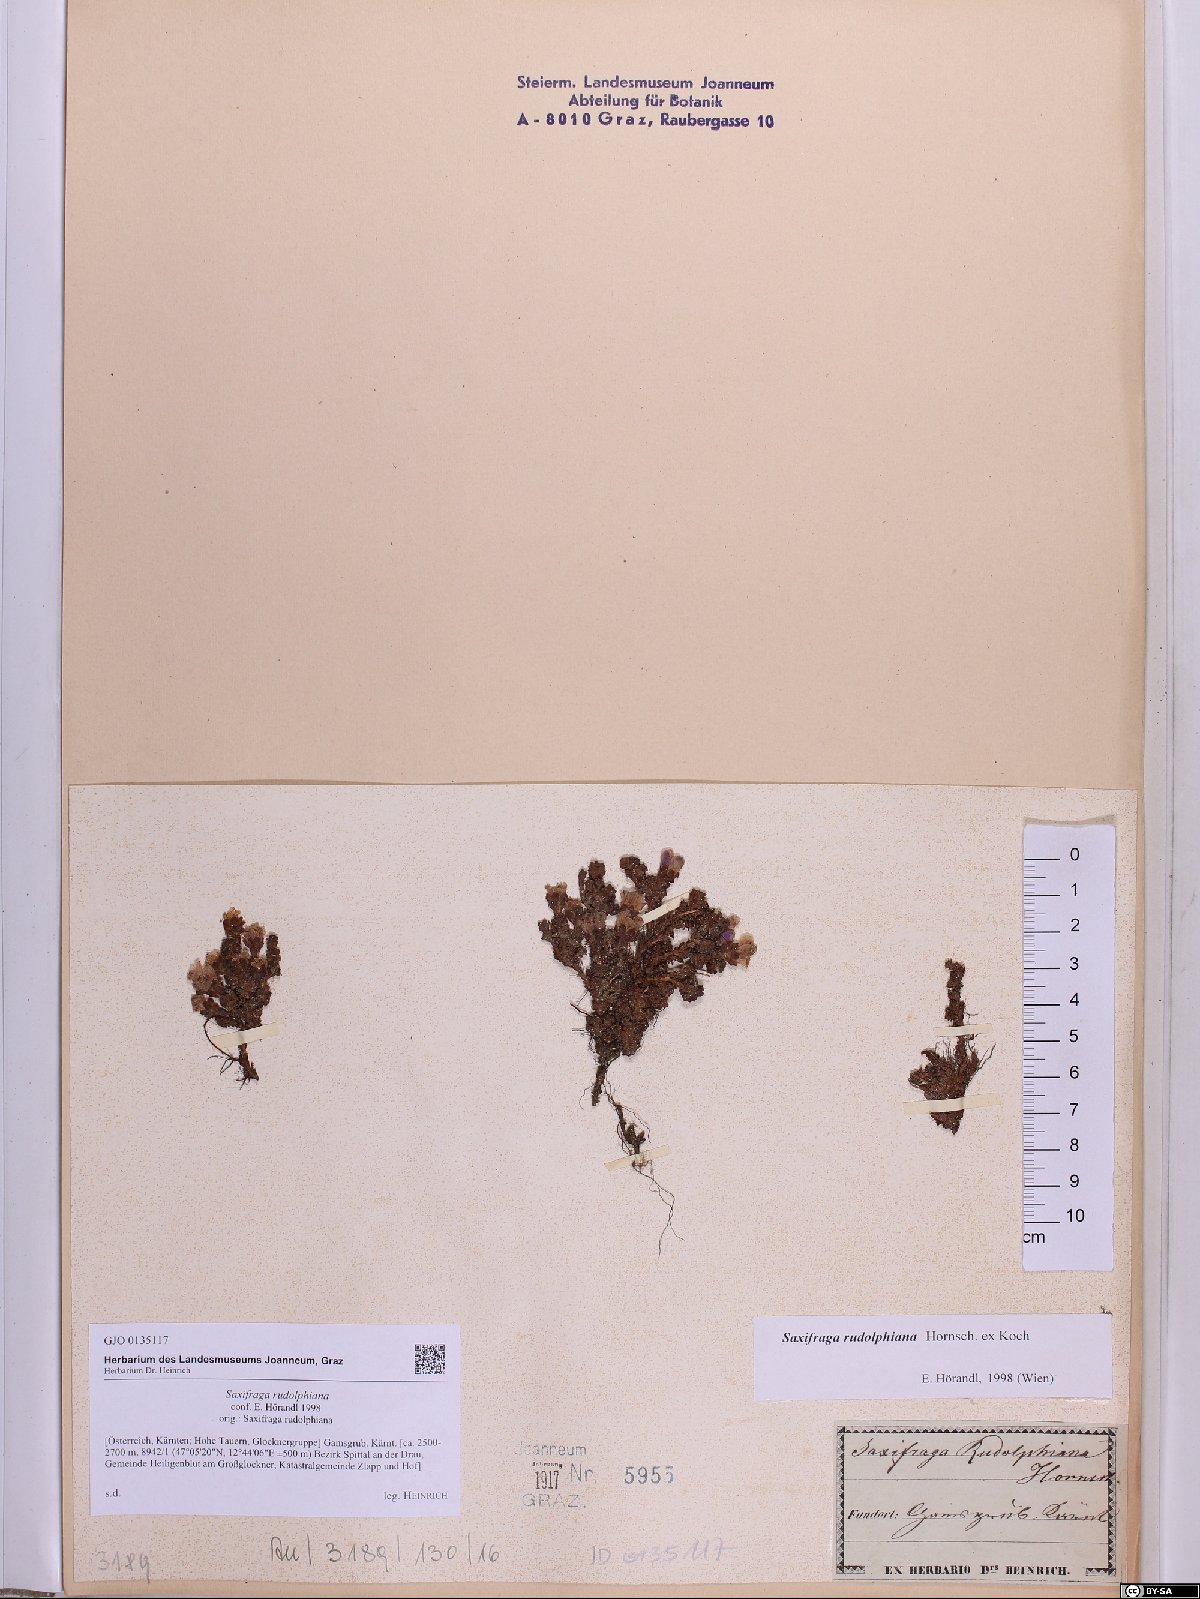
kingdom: Plantae
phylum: Tracheophyta
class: Magnoliopsida
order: Saxifragales
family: Saxifragaceae
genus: Saxifraga
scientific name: Saxifraga oppositifolia
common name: Purple saxifrage
